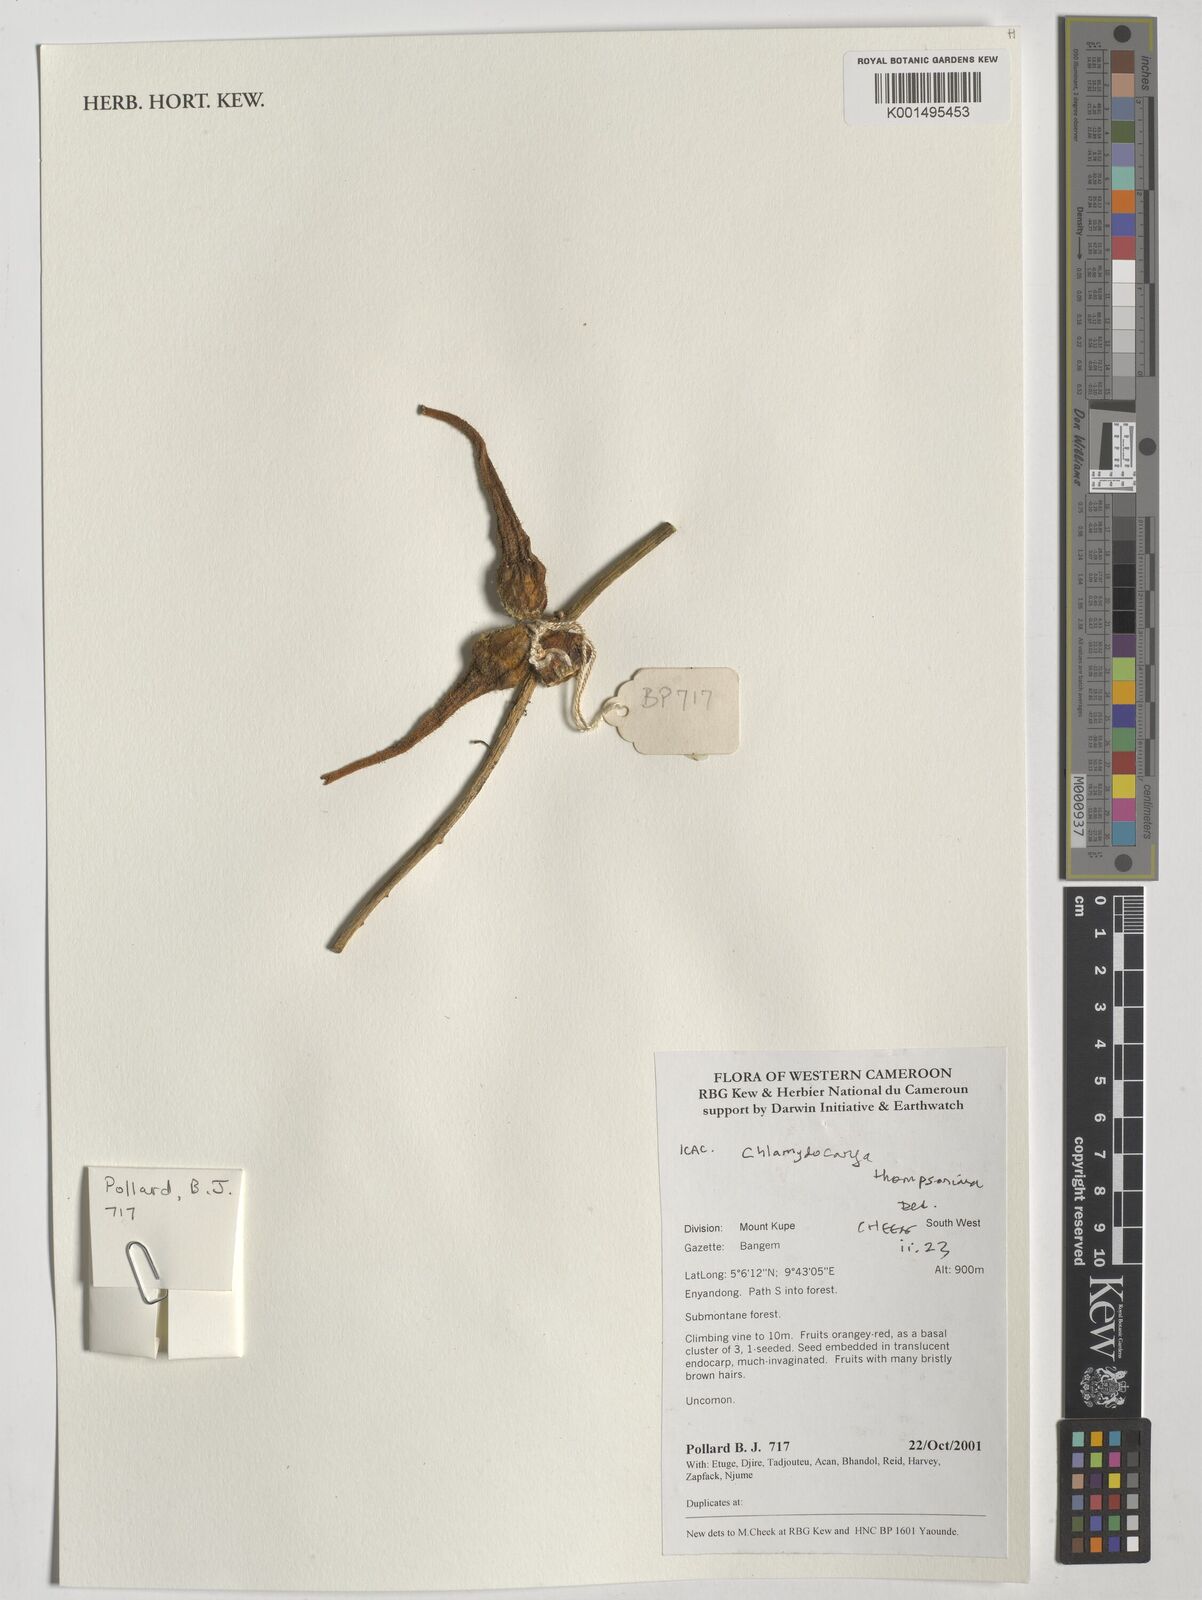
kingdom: Plantae
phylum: Tracheophyta
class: Magnoliopsida
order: Icacinales
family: Icacinaceae
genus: Pyrenacantha
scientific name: Pyrenacantha thomsoniana
